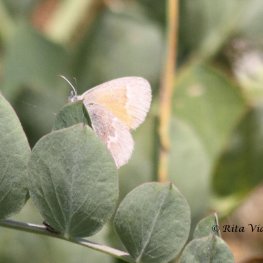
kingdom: Animalia
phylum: Arthropoda
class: Insecta
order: Lepidoptera
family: Nymphalidae
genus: Coenonympha
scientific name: Coenonympha tullia
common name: Large Heath
